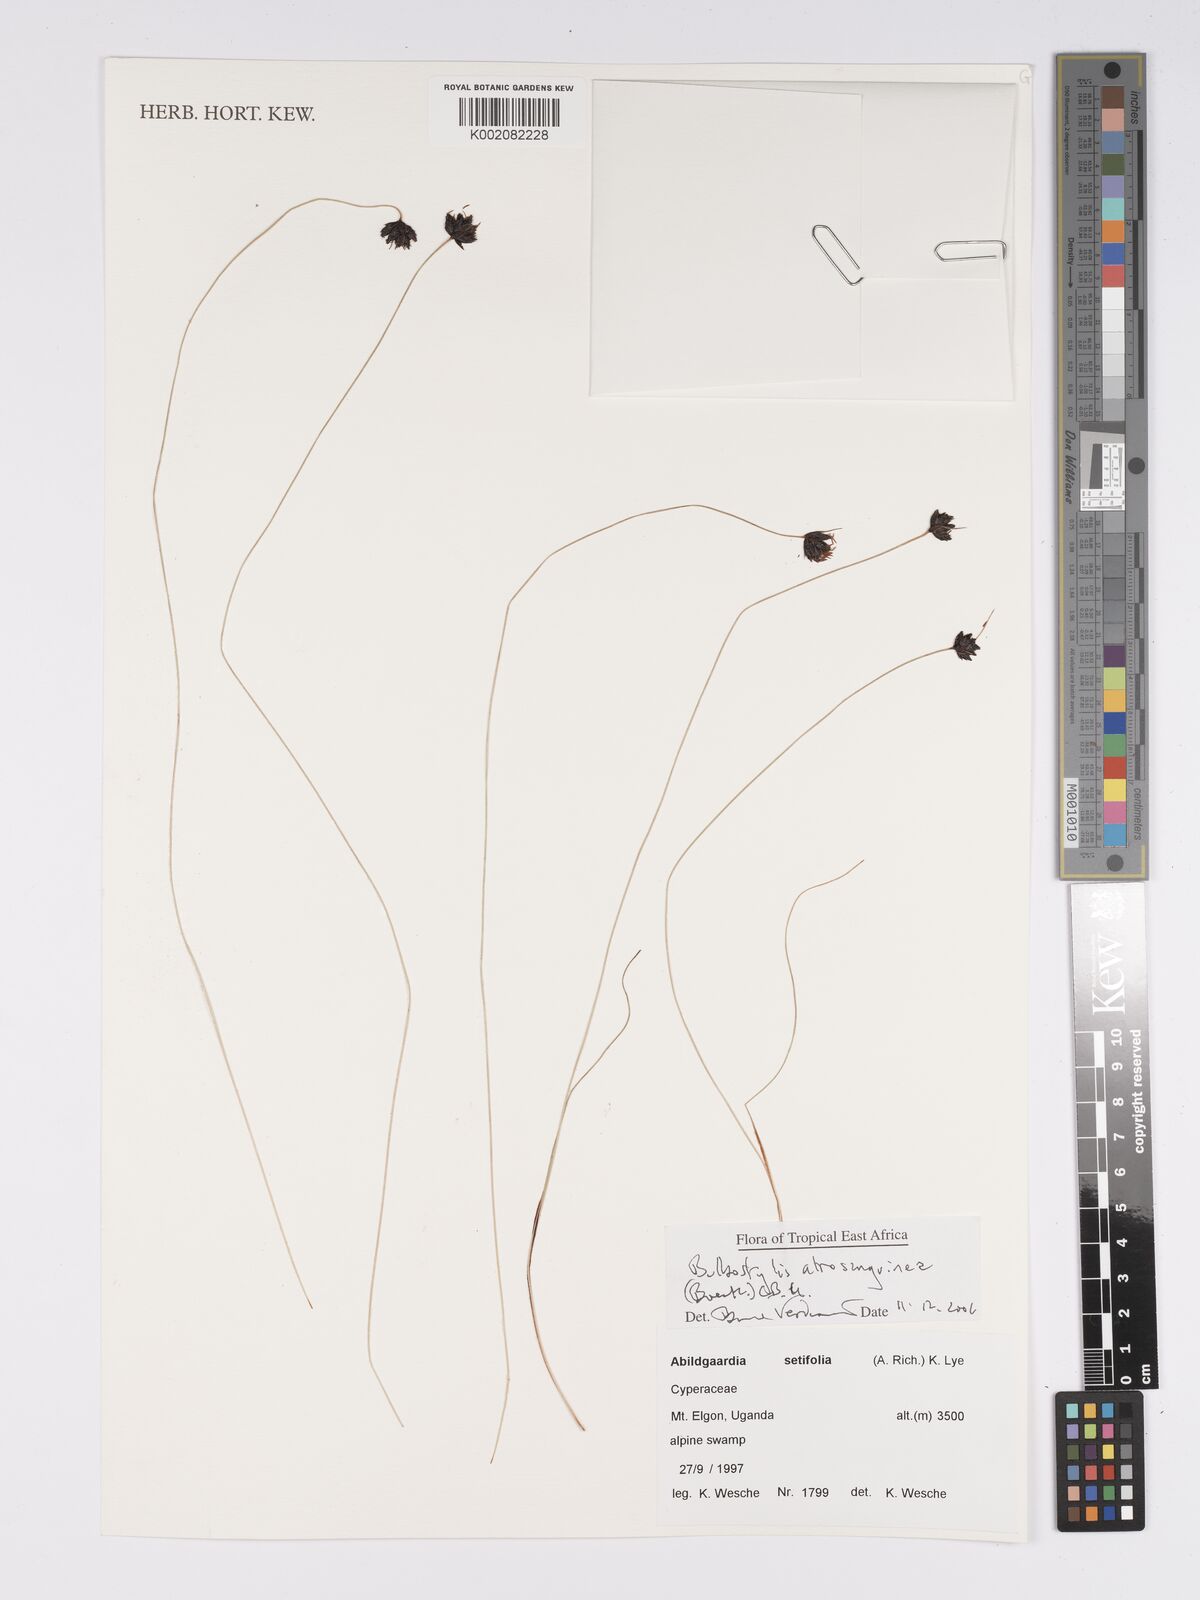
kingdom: Plantae
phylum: Tracheophyta
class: Liliopsida
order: Poales
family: Cyperaceae
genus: Bulbostylis
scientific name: Bulbostylis atrosanguinea
